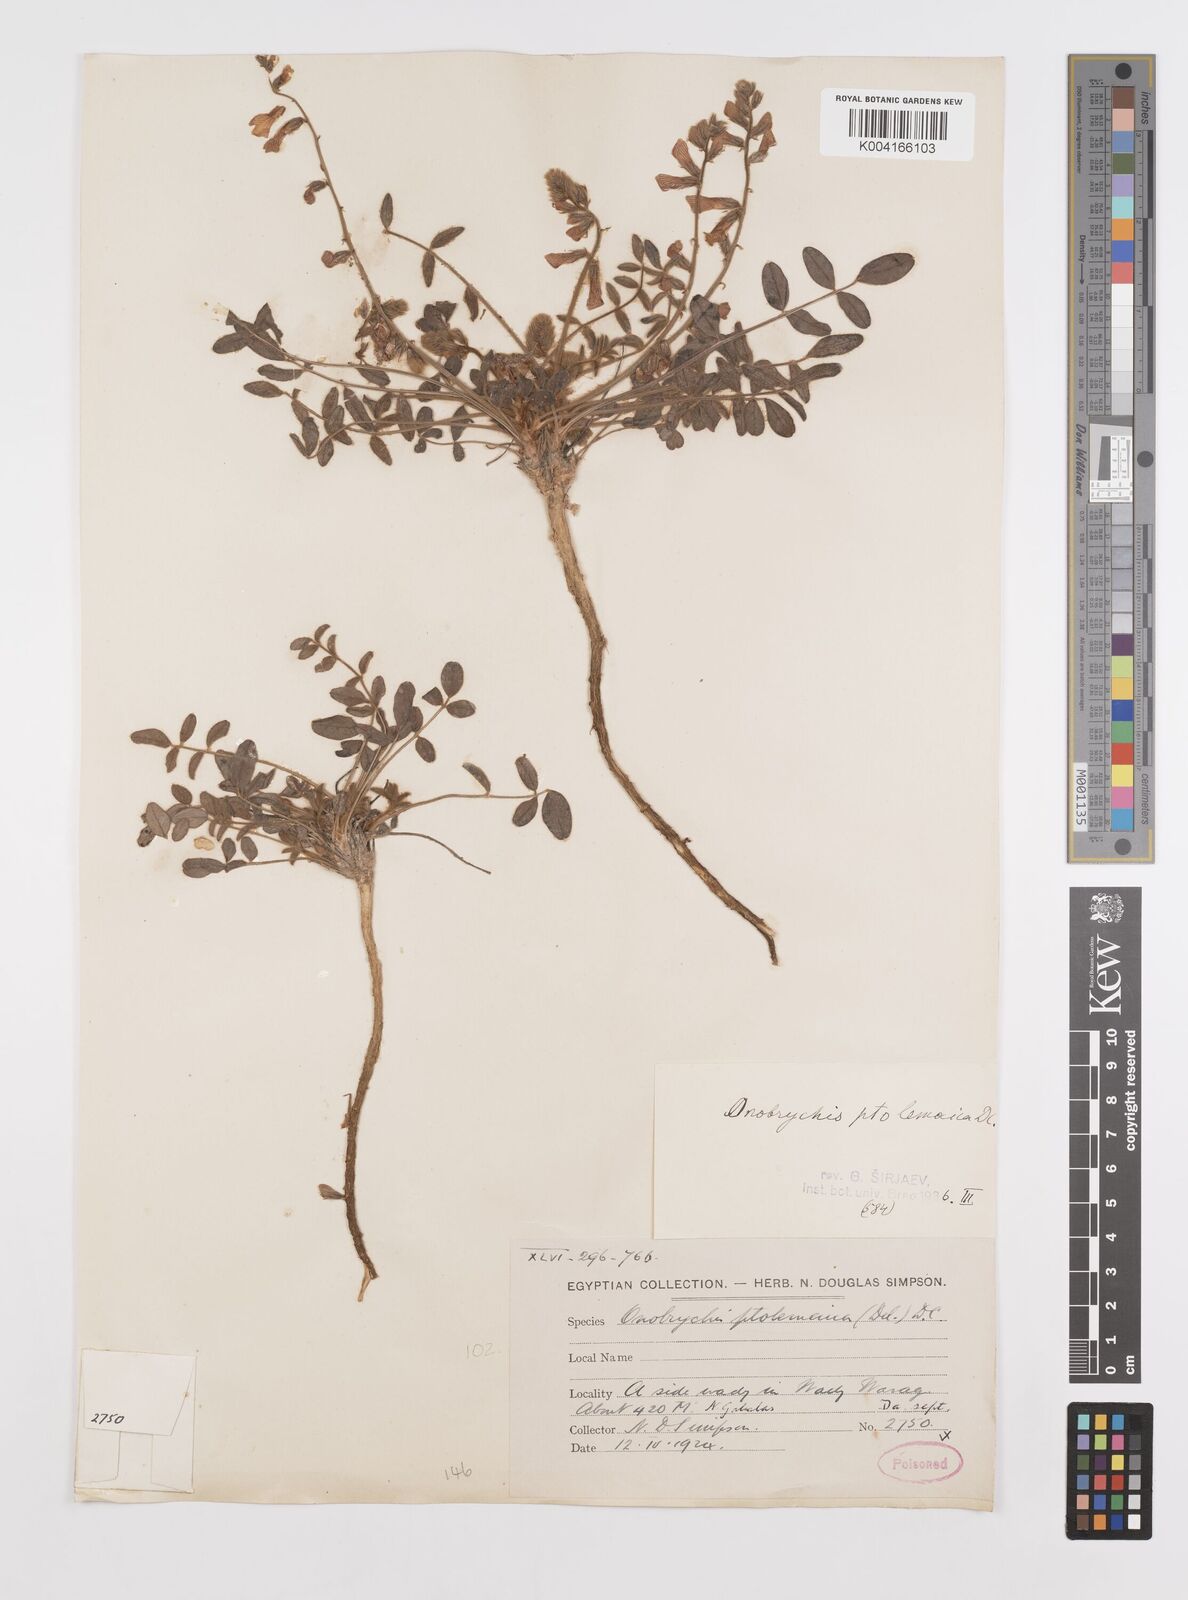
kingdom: Plantae
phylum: Tracheophyta
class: Magnoliopsida
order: Fabales
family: Fabaceae
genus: Onobrychis
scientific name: Onobrychis ptolemaica
